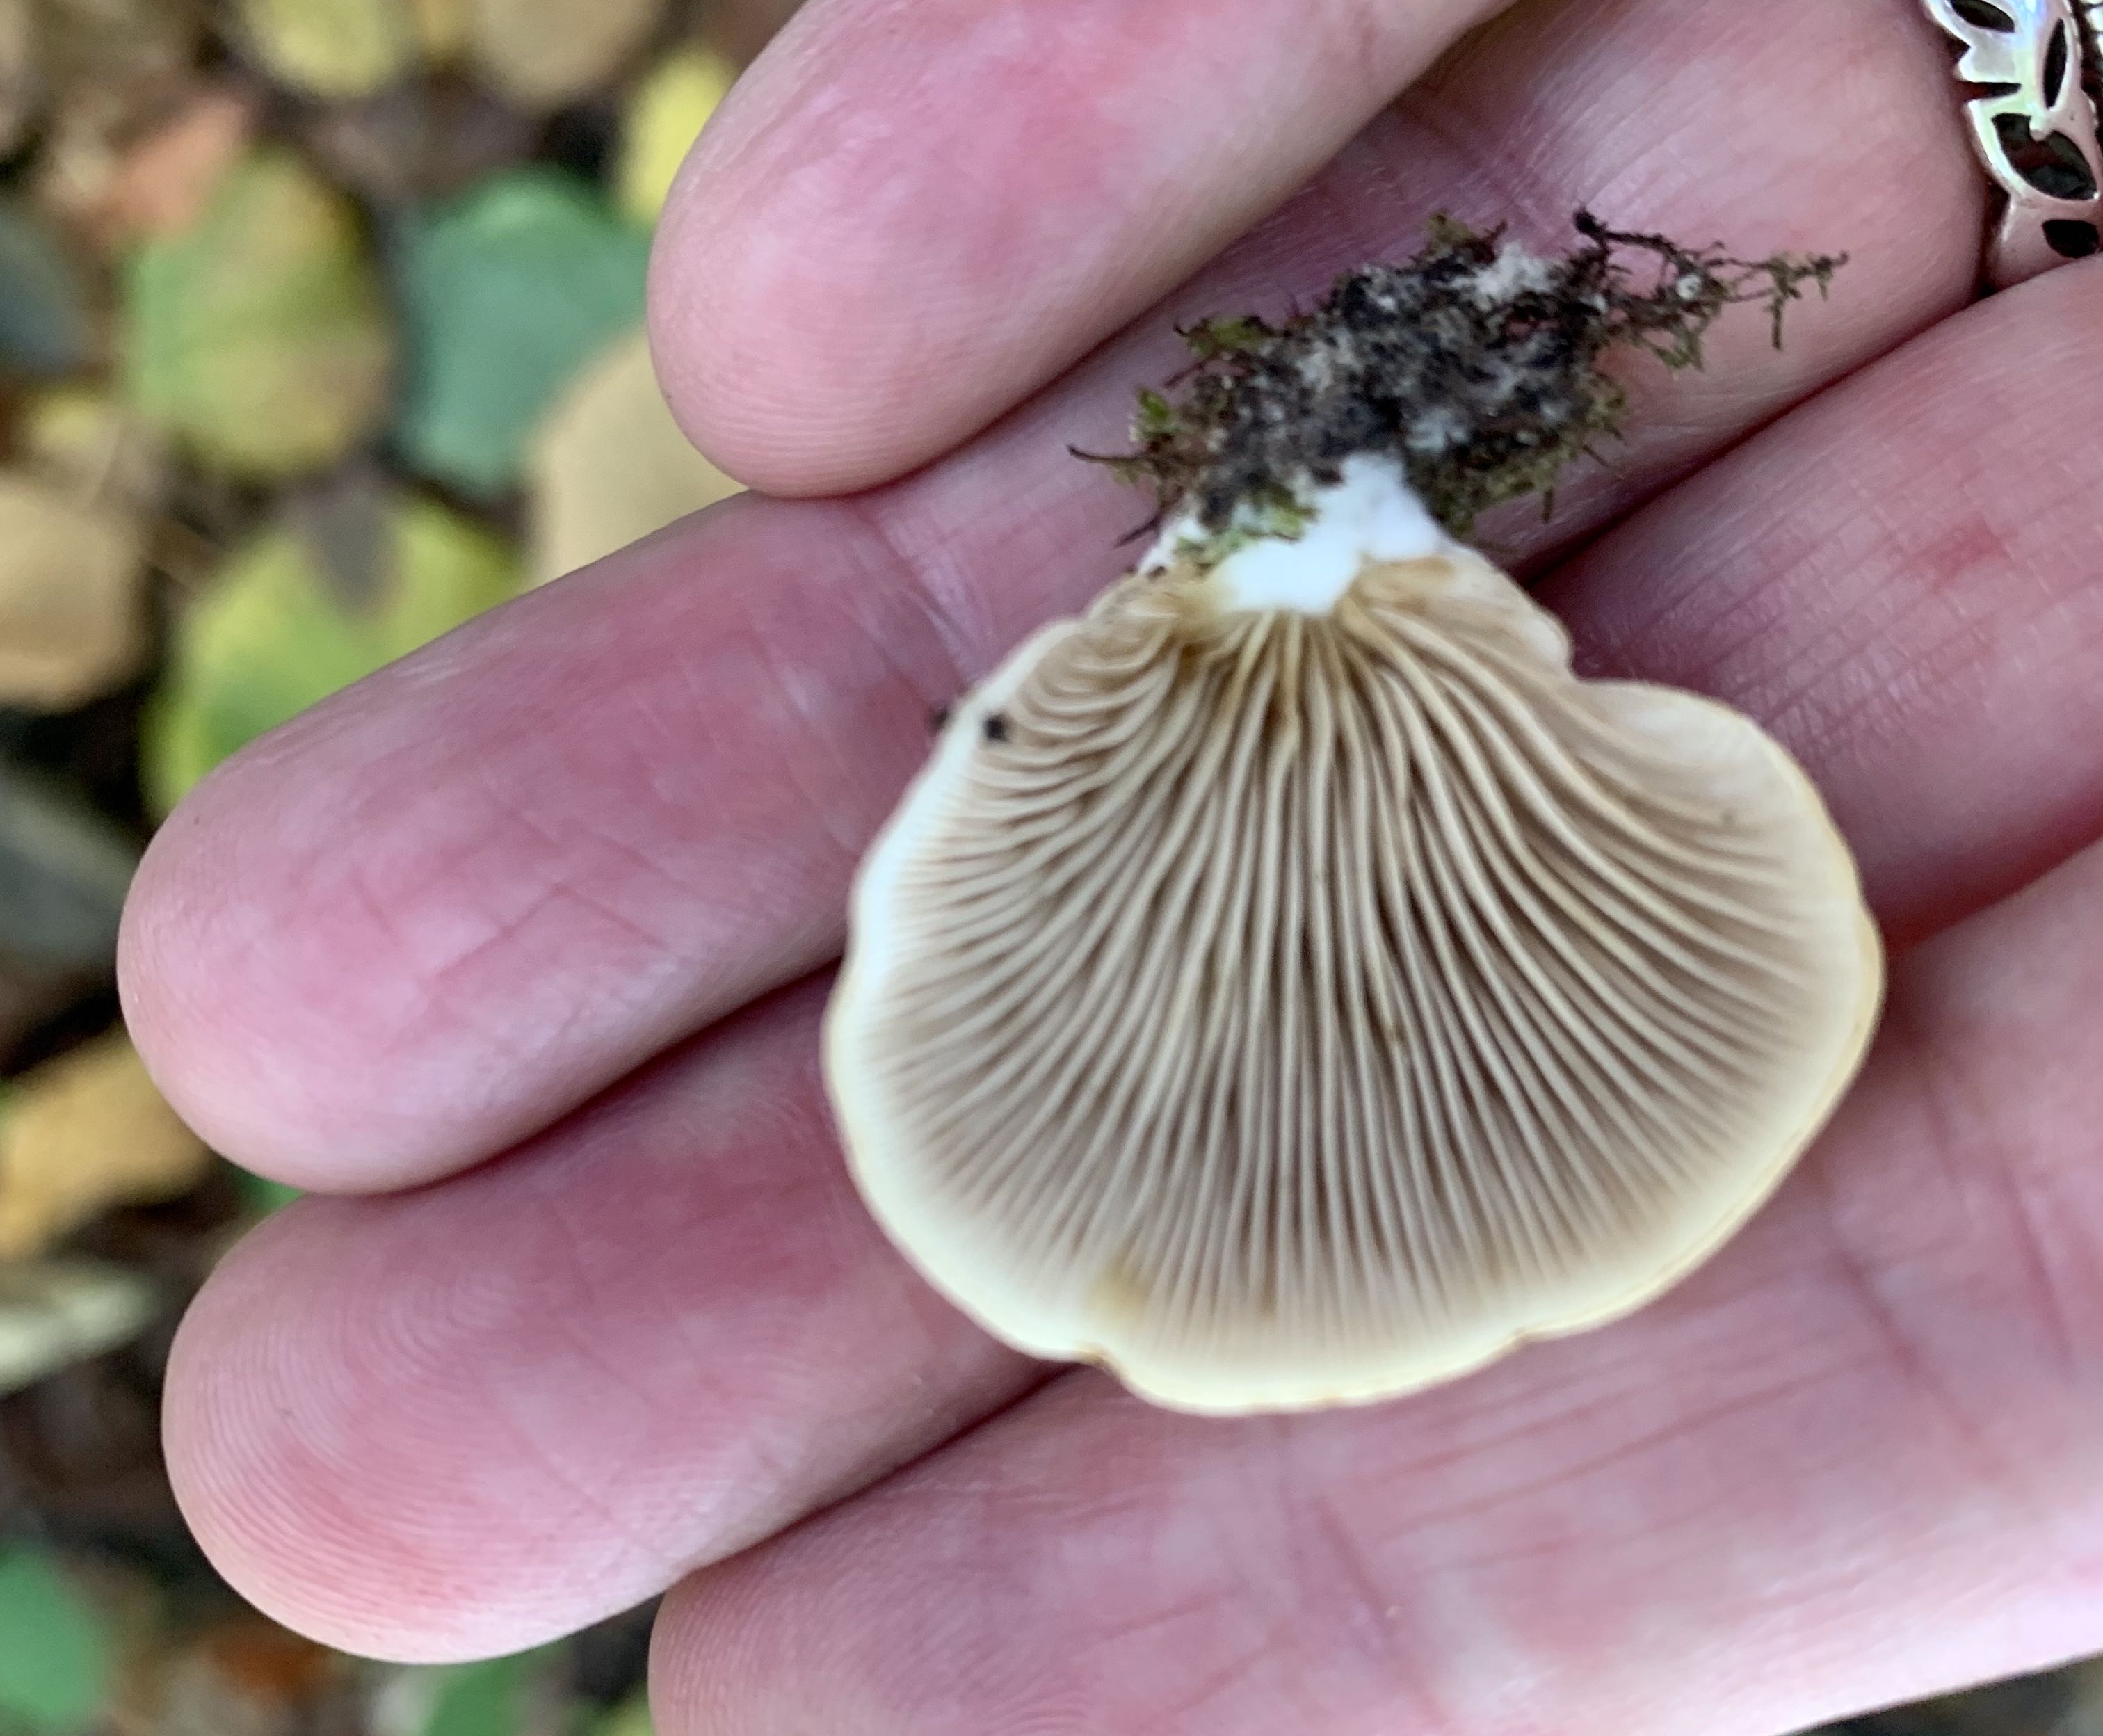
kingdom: Fungi
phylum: Basidiomycota
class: Agaricomycetes
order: Agaricales
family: Crepidotaceae
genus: Crepidotus
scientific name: Crepidotus mollis
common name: blød muslingesvamp
